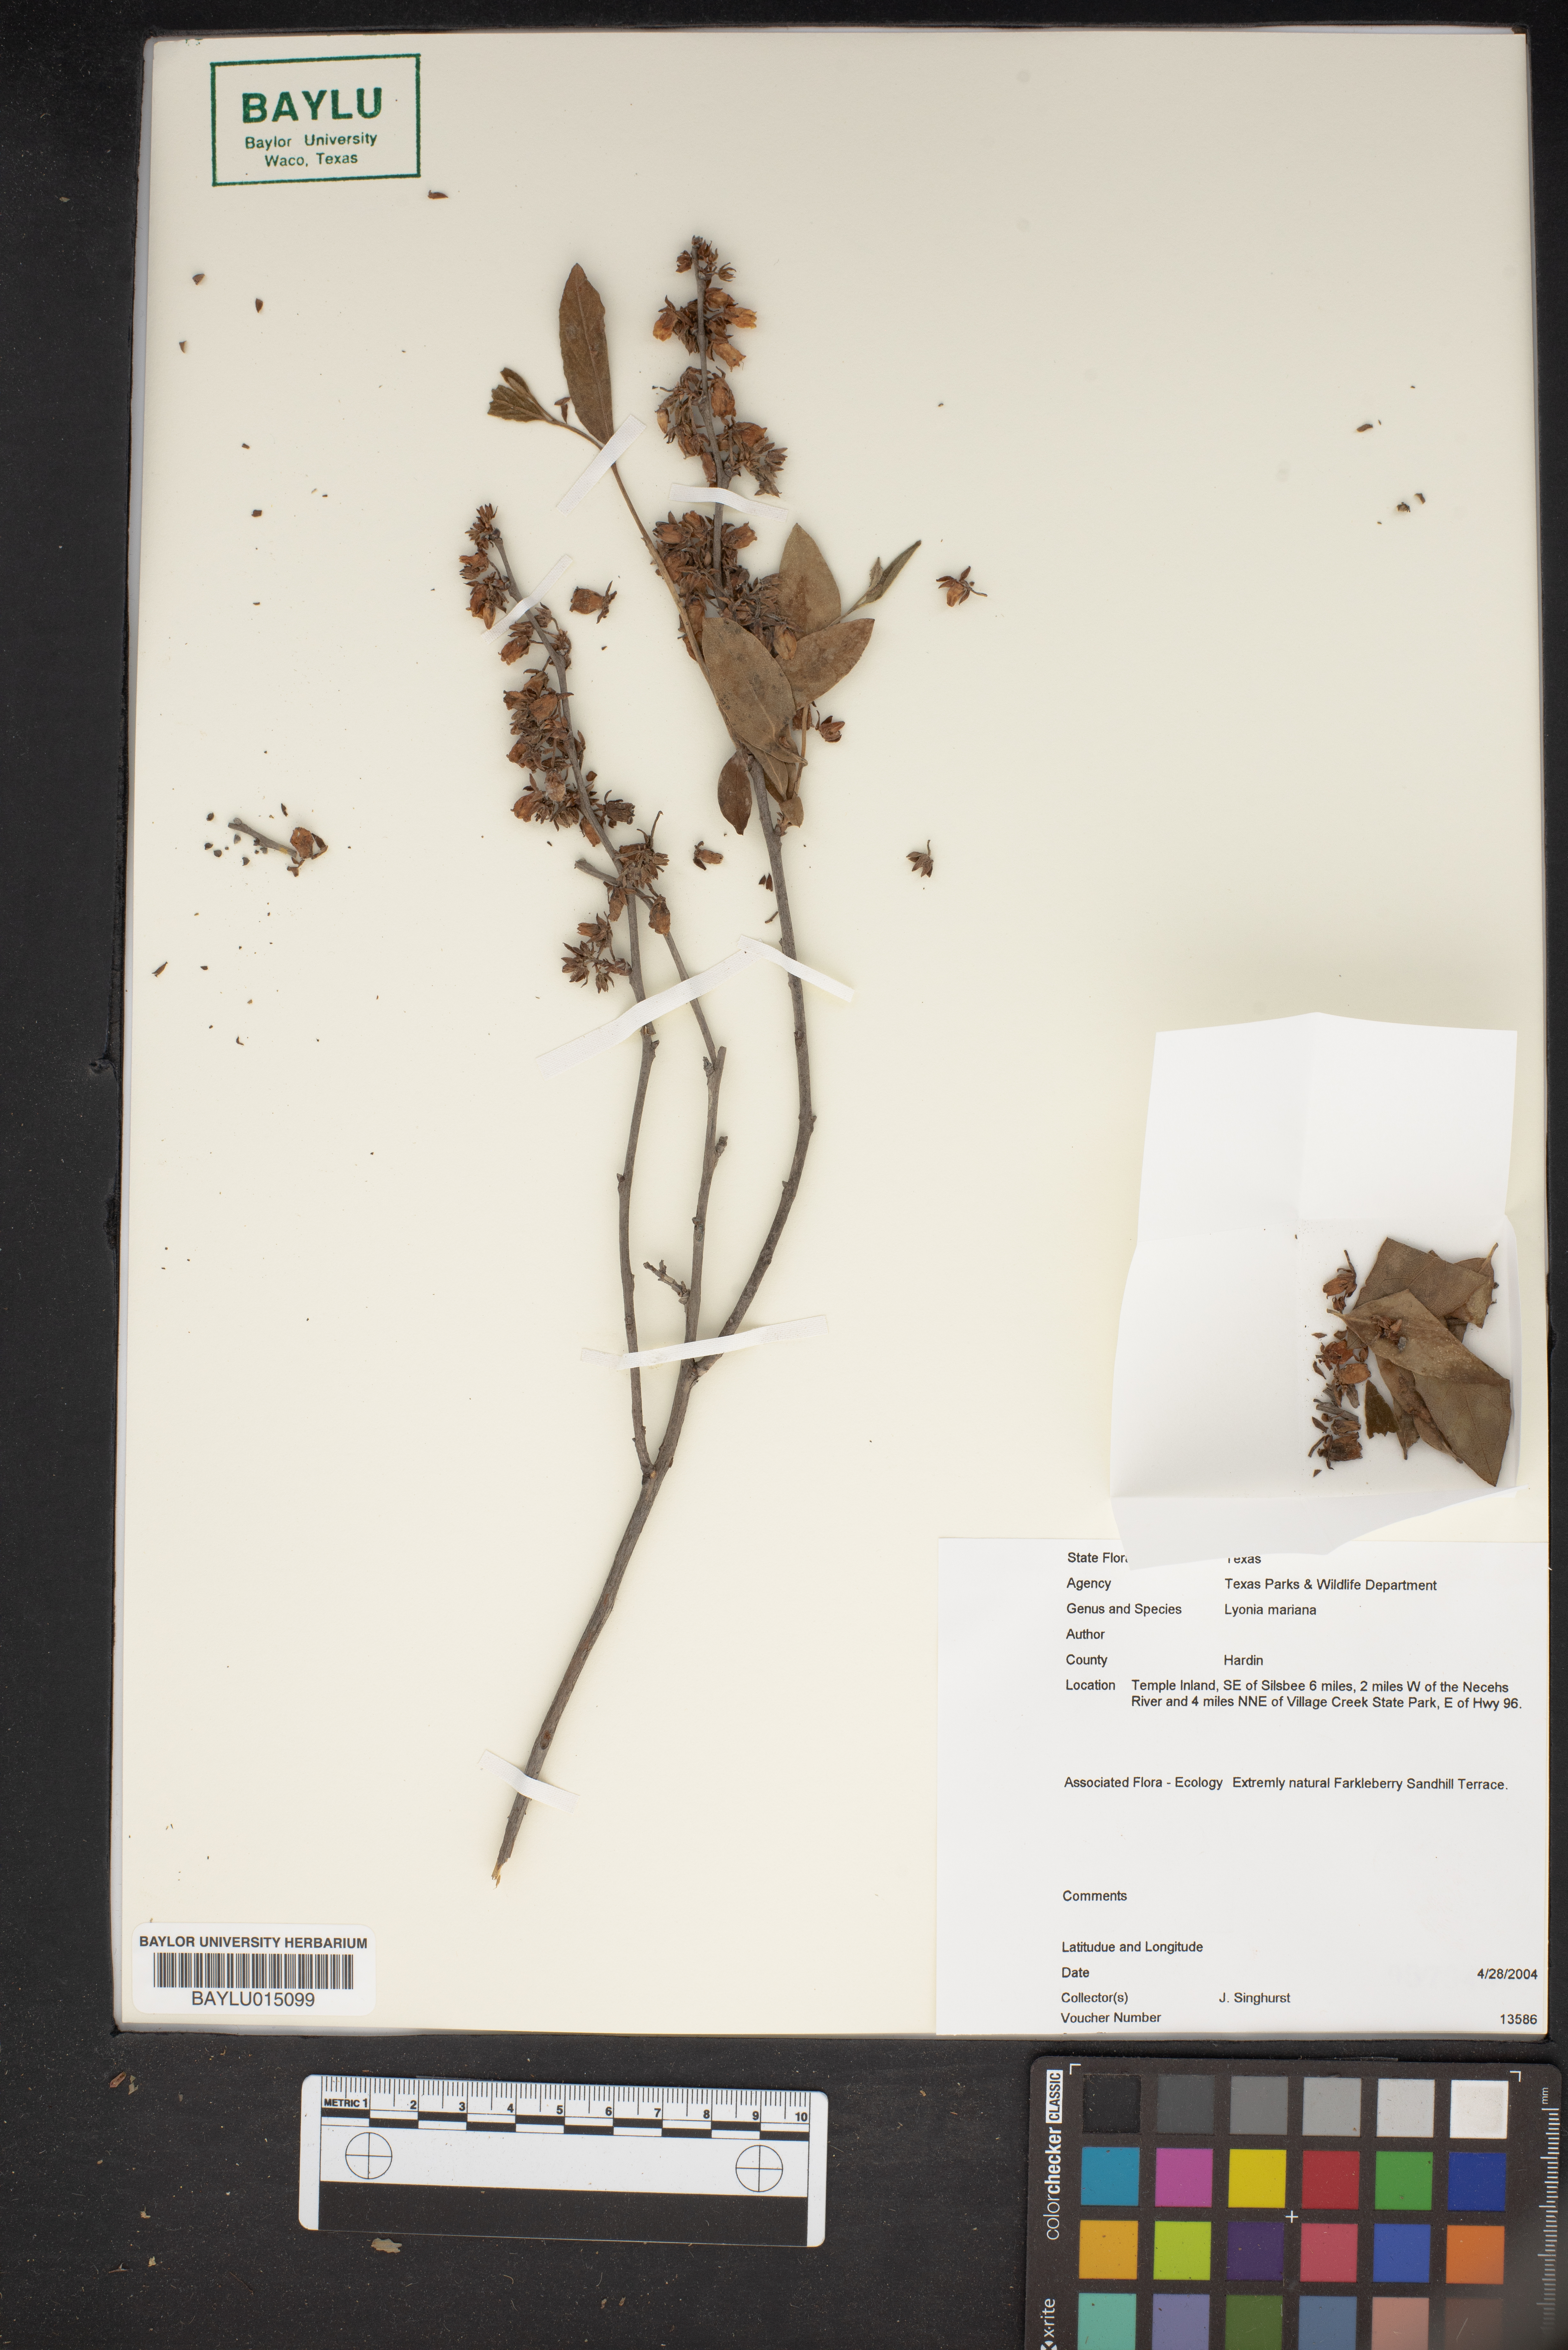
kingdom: Plantae
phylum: Tracheophyta
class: Magnoliopsida
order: Ericales
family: Ericaceae
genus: Lyonia
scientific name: Lyonia mariana
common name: Staggerbush
